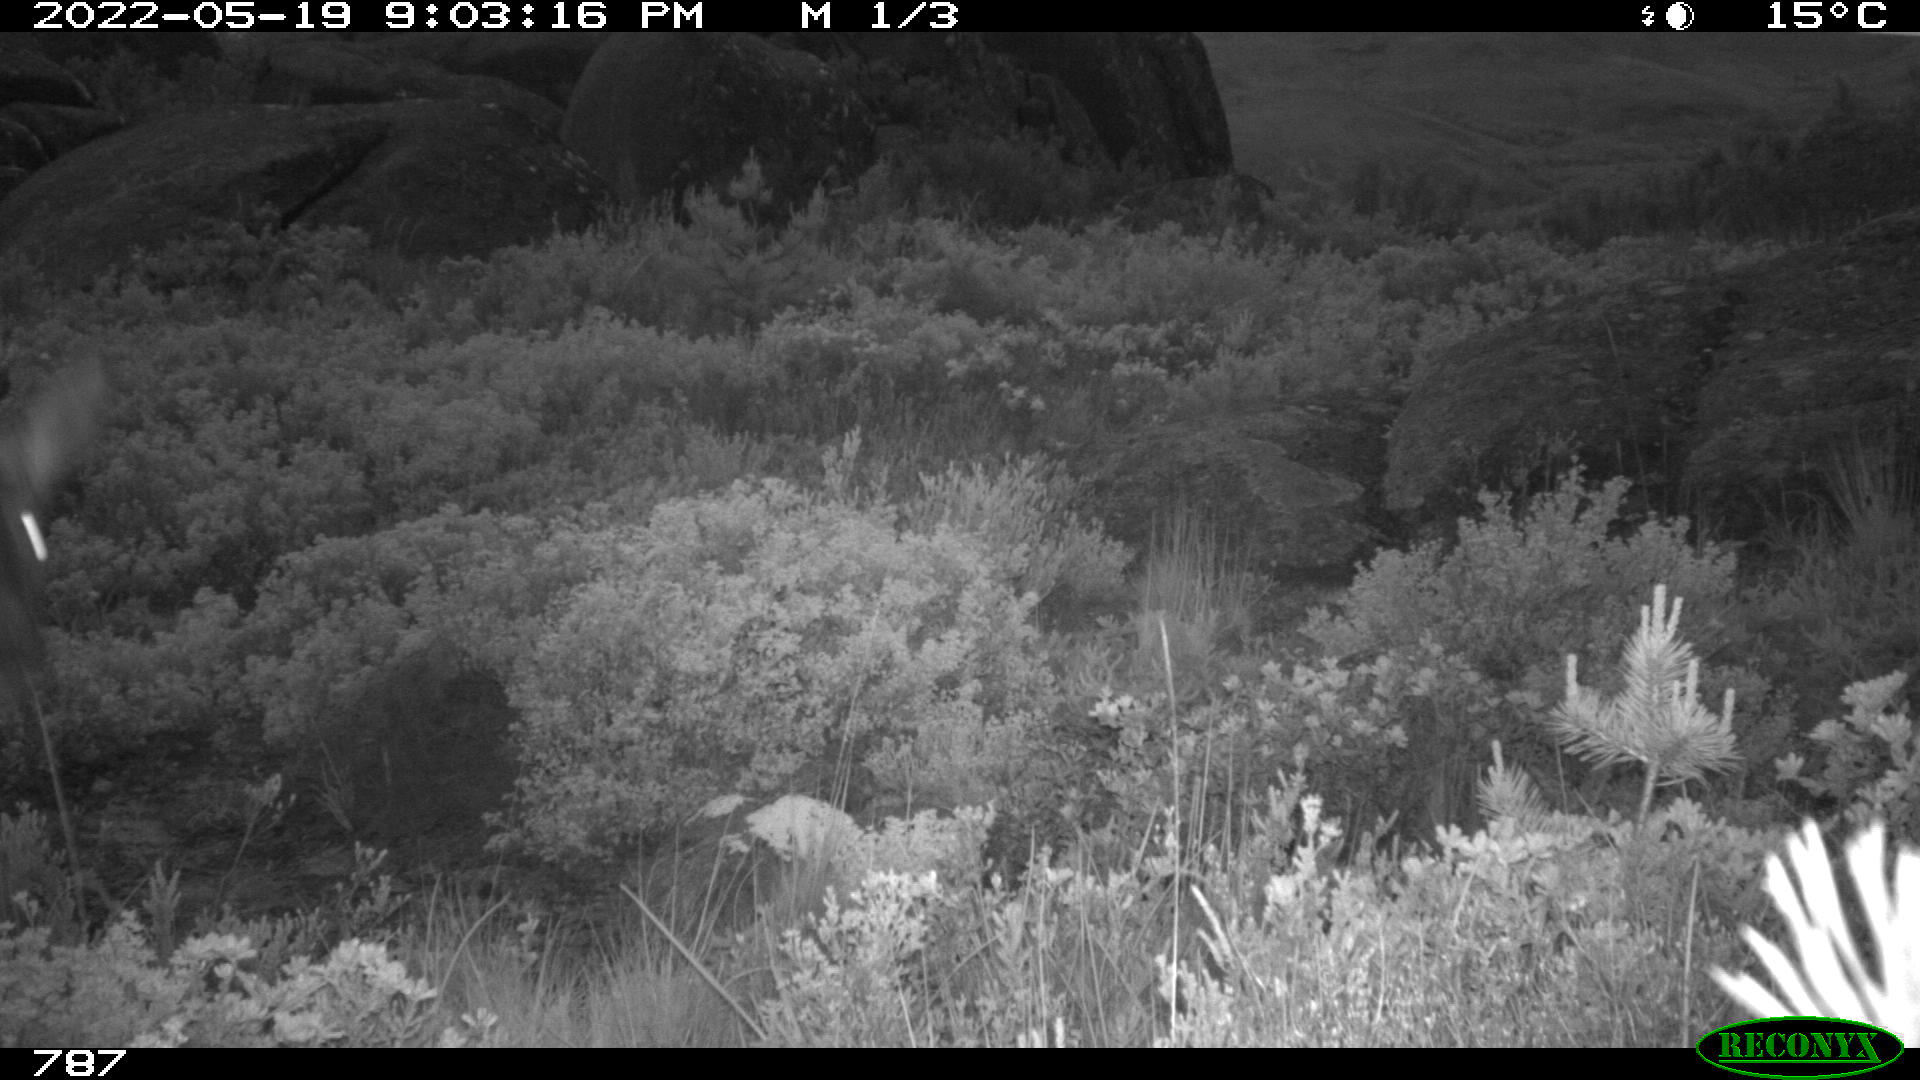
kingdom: Animalia
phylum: Chordata
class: Mammalia
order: Artiodactyla
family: Cervidae
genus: Capreolus
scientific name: Capreolus capreolus
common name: Western roe deer
